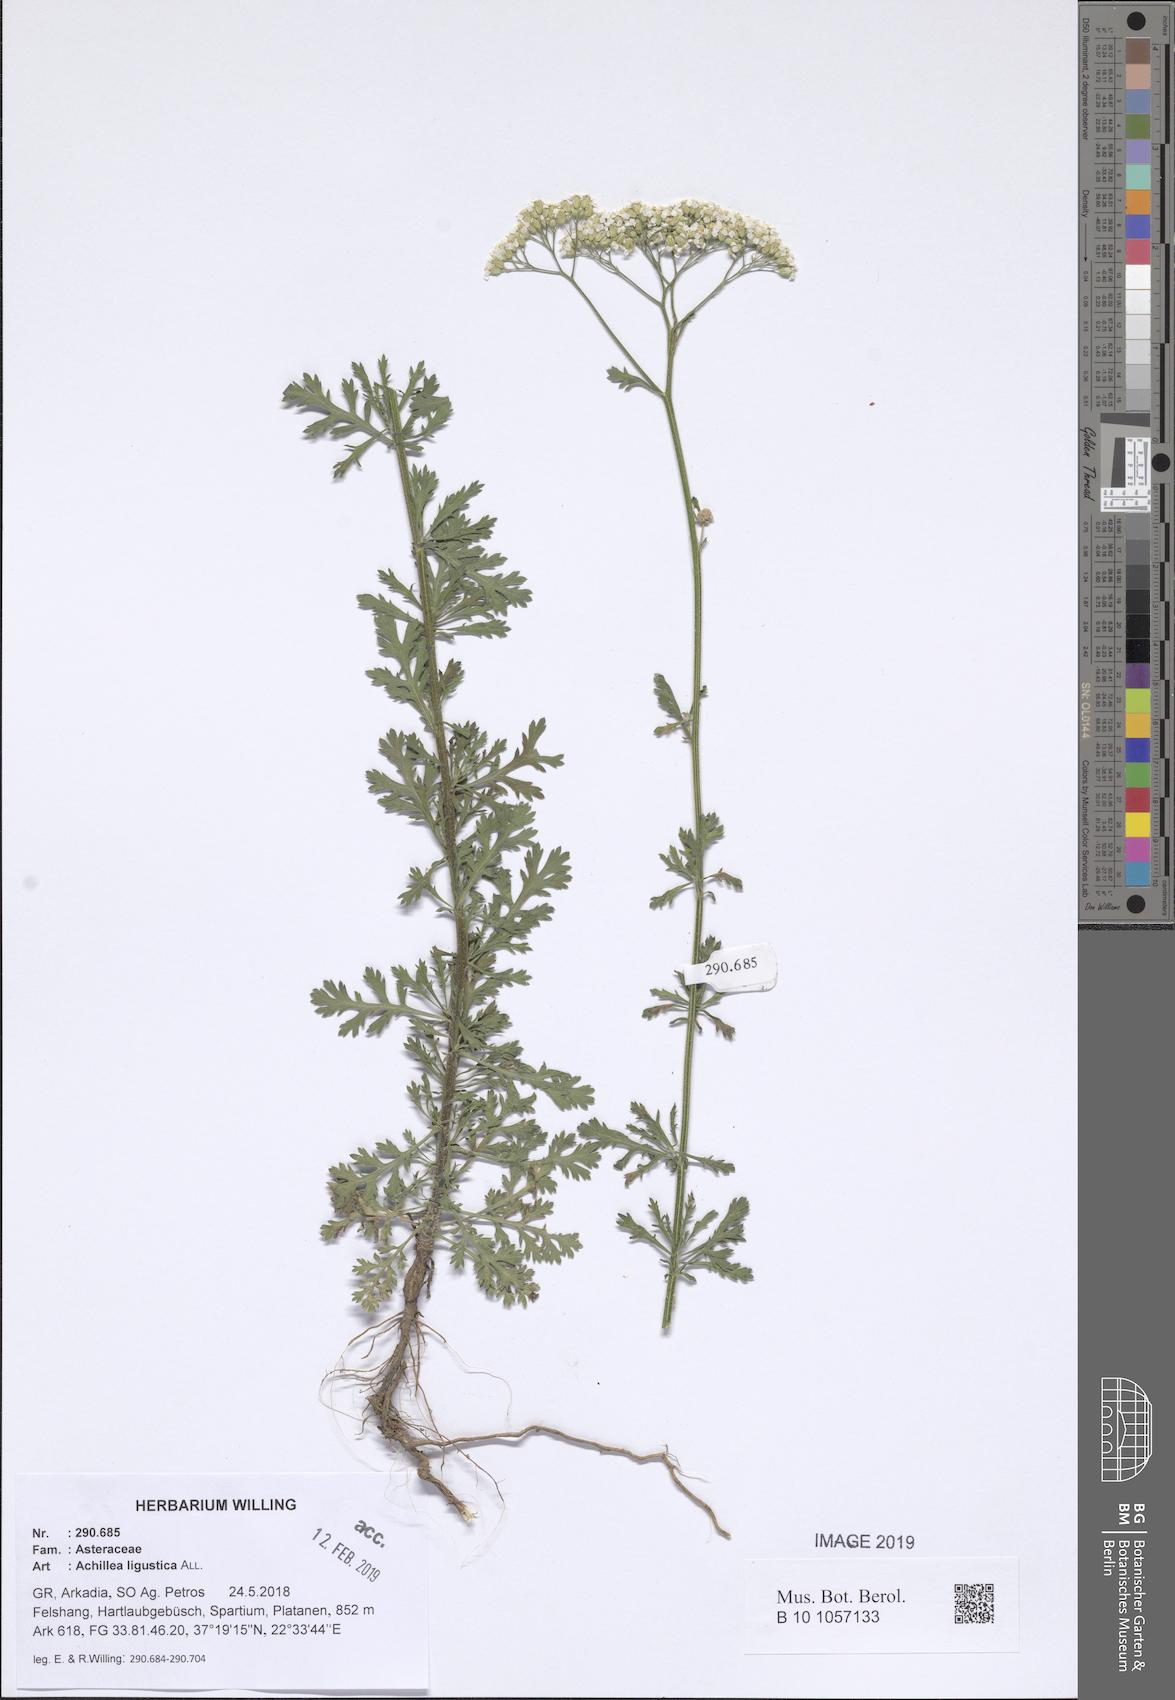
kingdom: Plantae
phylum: Tracheophyta
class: Magnoliopsida
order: Asterales
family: Asteraceae
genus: Achillea
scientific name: Achillea ligustica
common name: Southern yarrow
